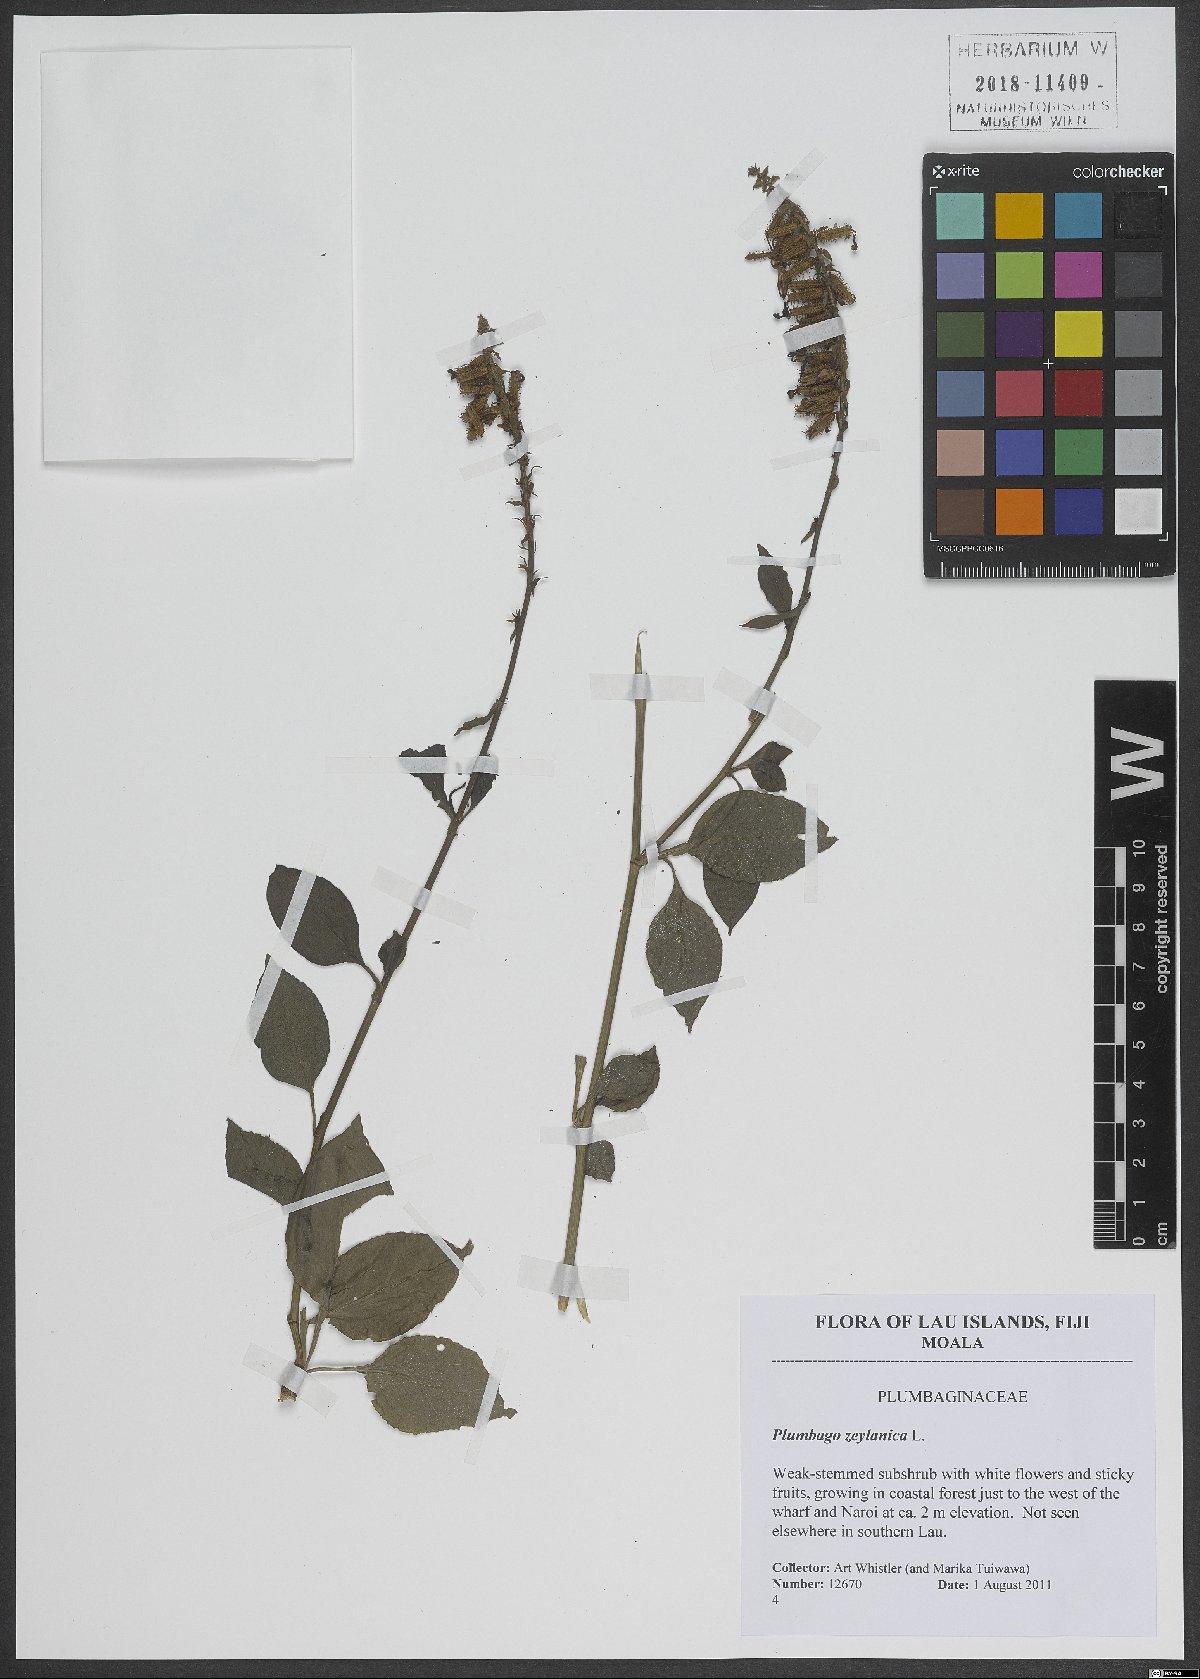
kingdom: Plantae
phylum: Tracheophyta
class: Magnoliopsida
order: Caryophyllales
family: Plumbaginaceae
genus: Plumbago
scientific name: Plumbago zeylanica
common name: Doctorbush
